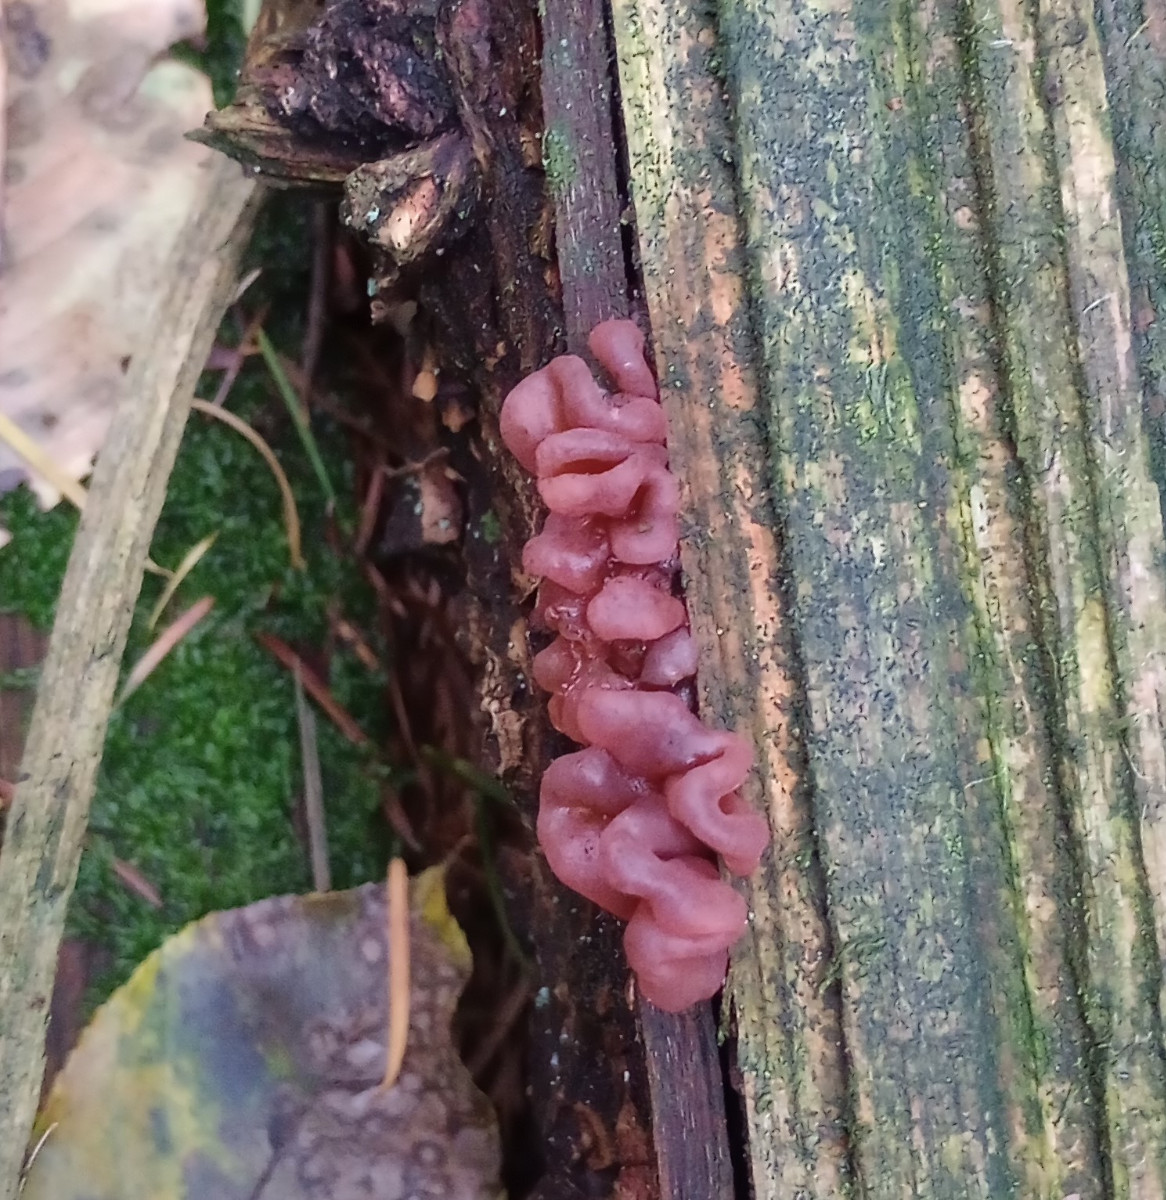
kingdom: Fungi
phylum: Ascomycota
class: Leotiomycetes
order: Helotiales
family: Gelatinodiscaceae
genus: Ascocoryne
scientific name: Ascocoryne sarcoides
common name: rødlilla sejskive
